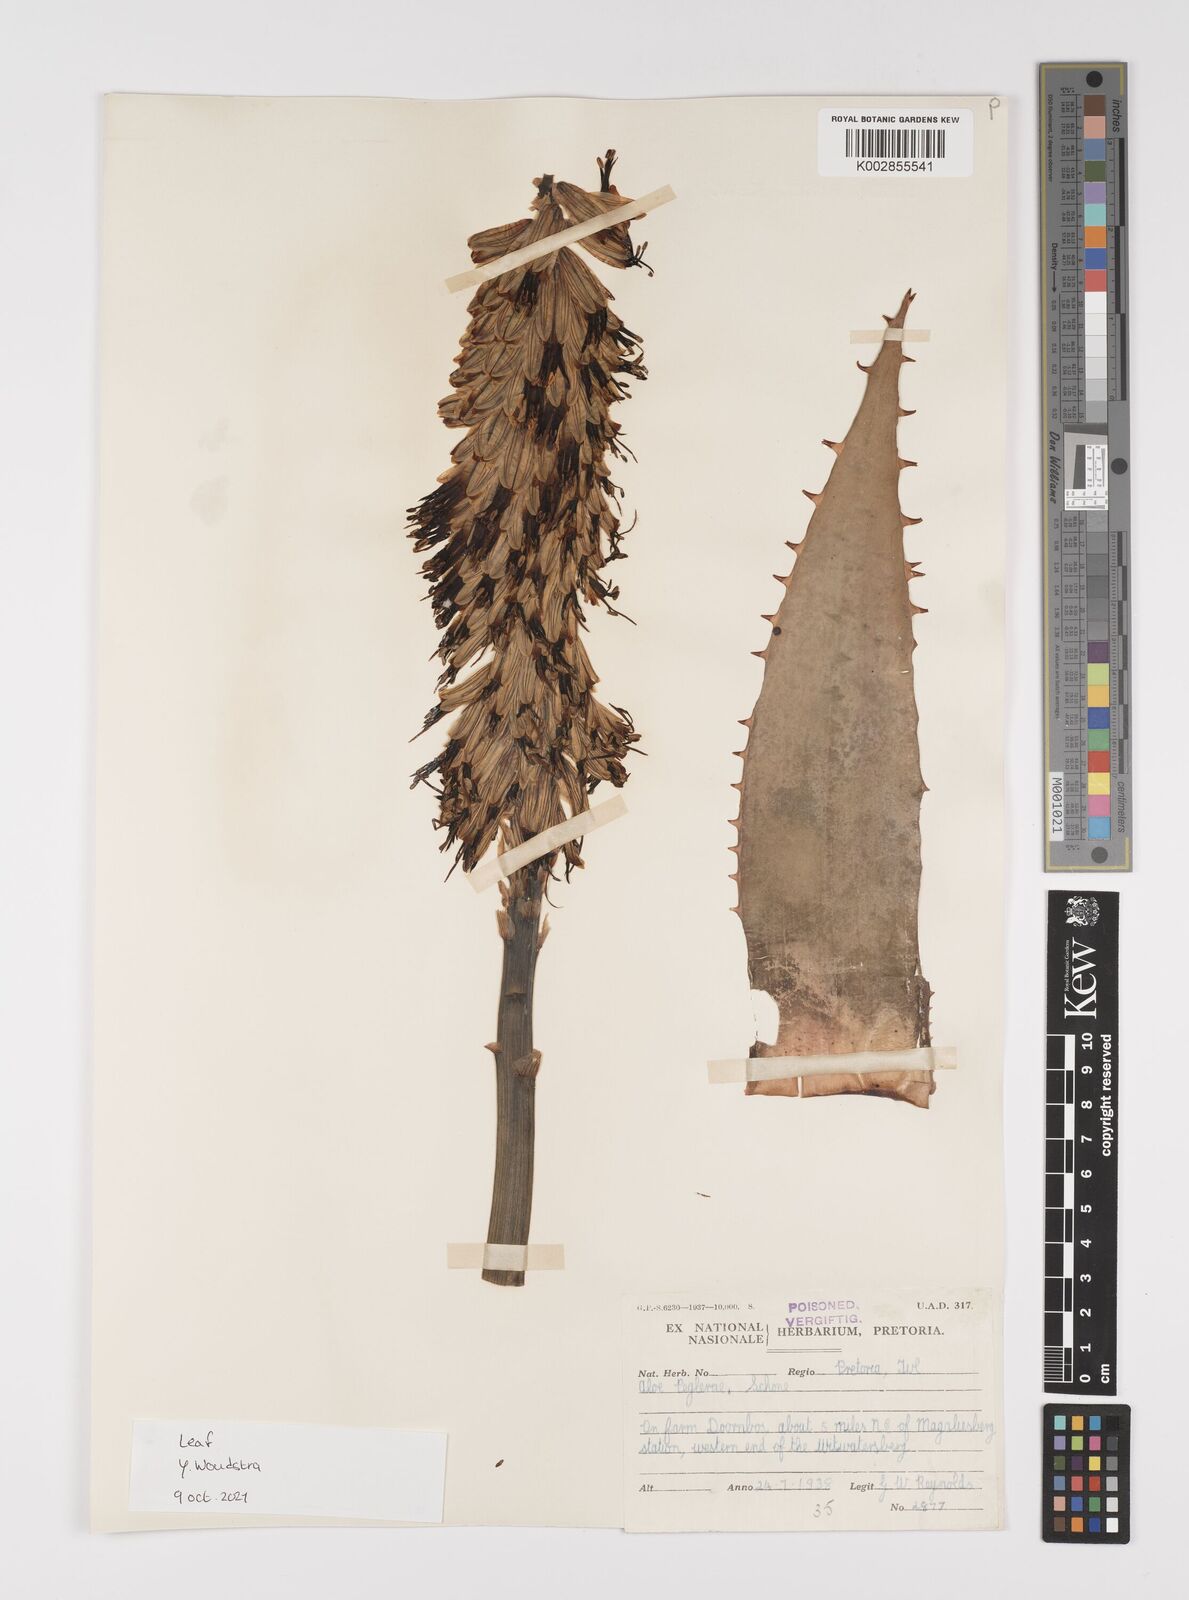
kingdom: Plantae
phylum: Tracheophyta
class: Liliopsida
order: Asparagales
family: Asphodelaceae
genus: Aloe
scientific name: Aloe peglerae
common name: Red-hot poker
